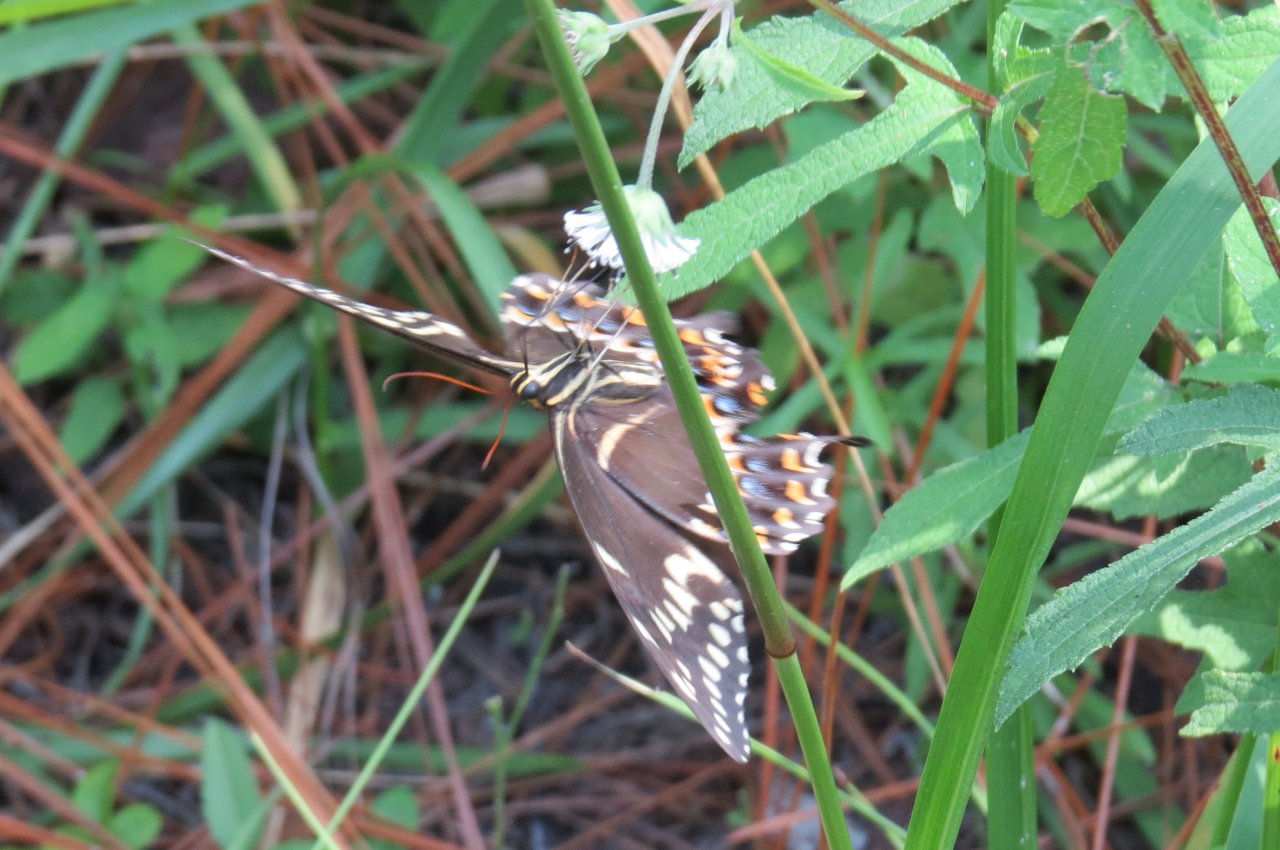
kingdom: Animalia
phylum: Arthropoda
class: Insecta
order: Lepidoptera
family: Papilionidae
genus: Pterourus
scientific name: Pterourus palamedes
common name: Palamedes Swallowtail
